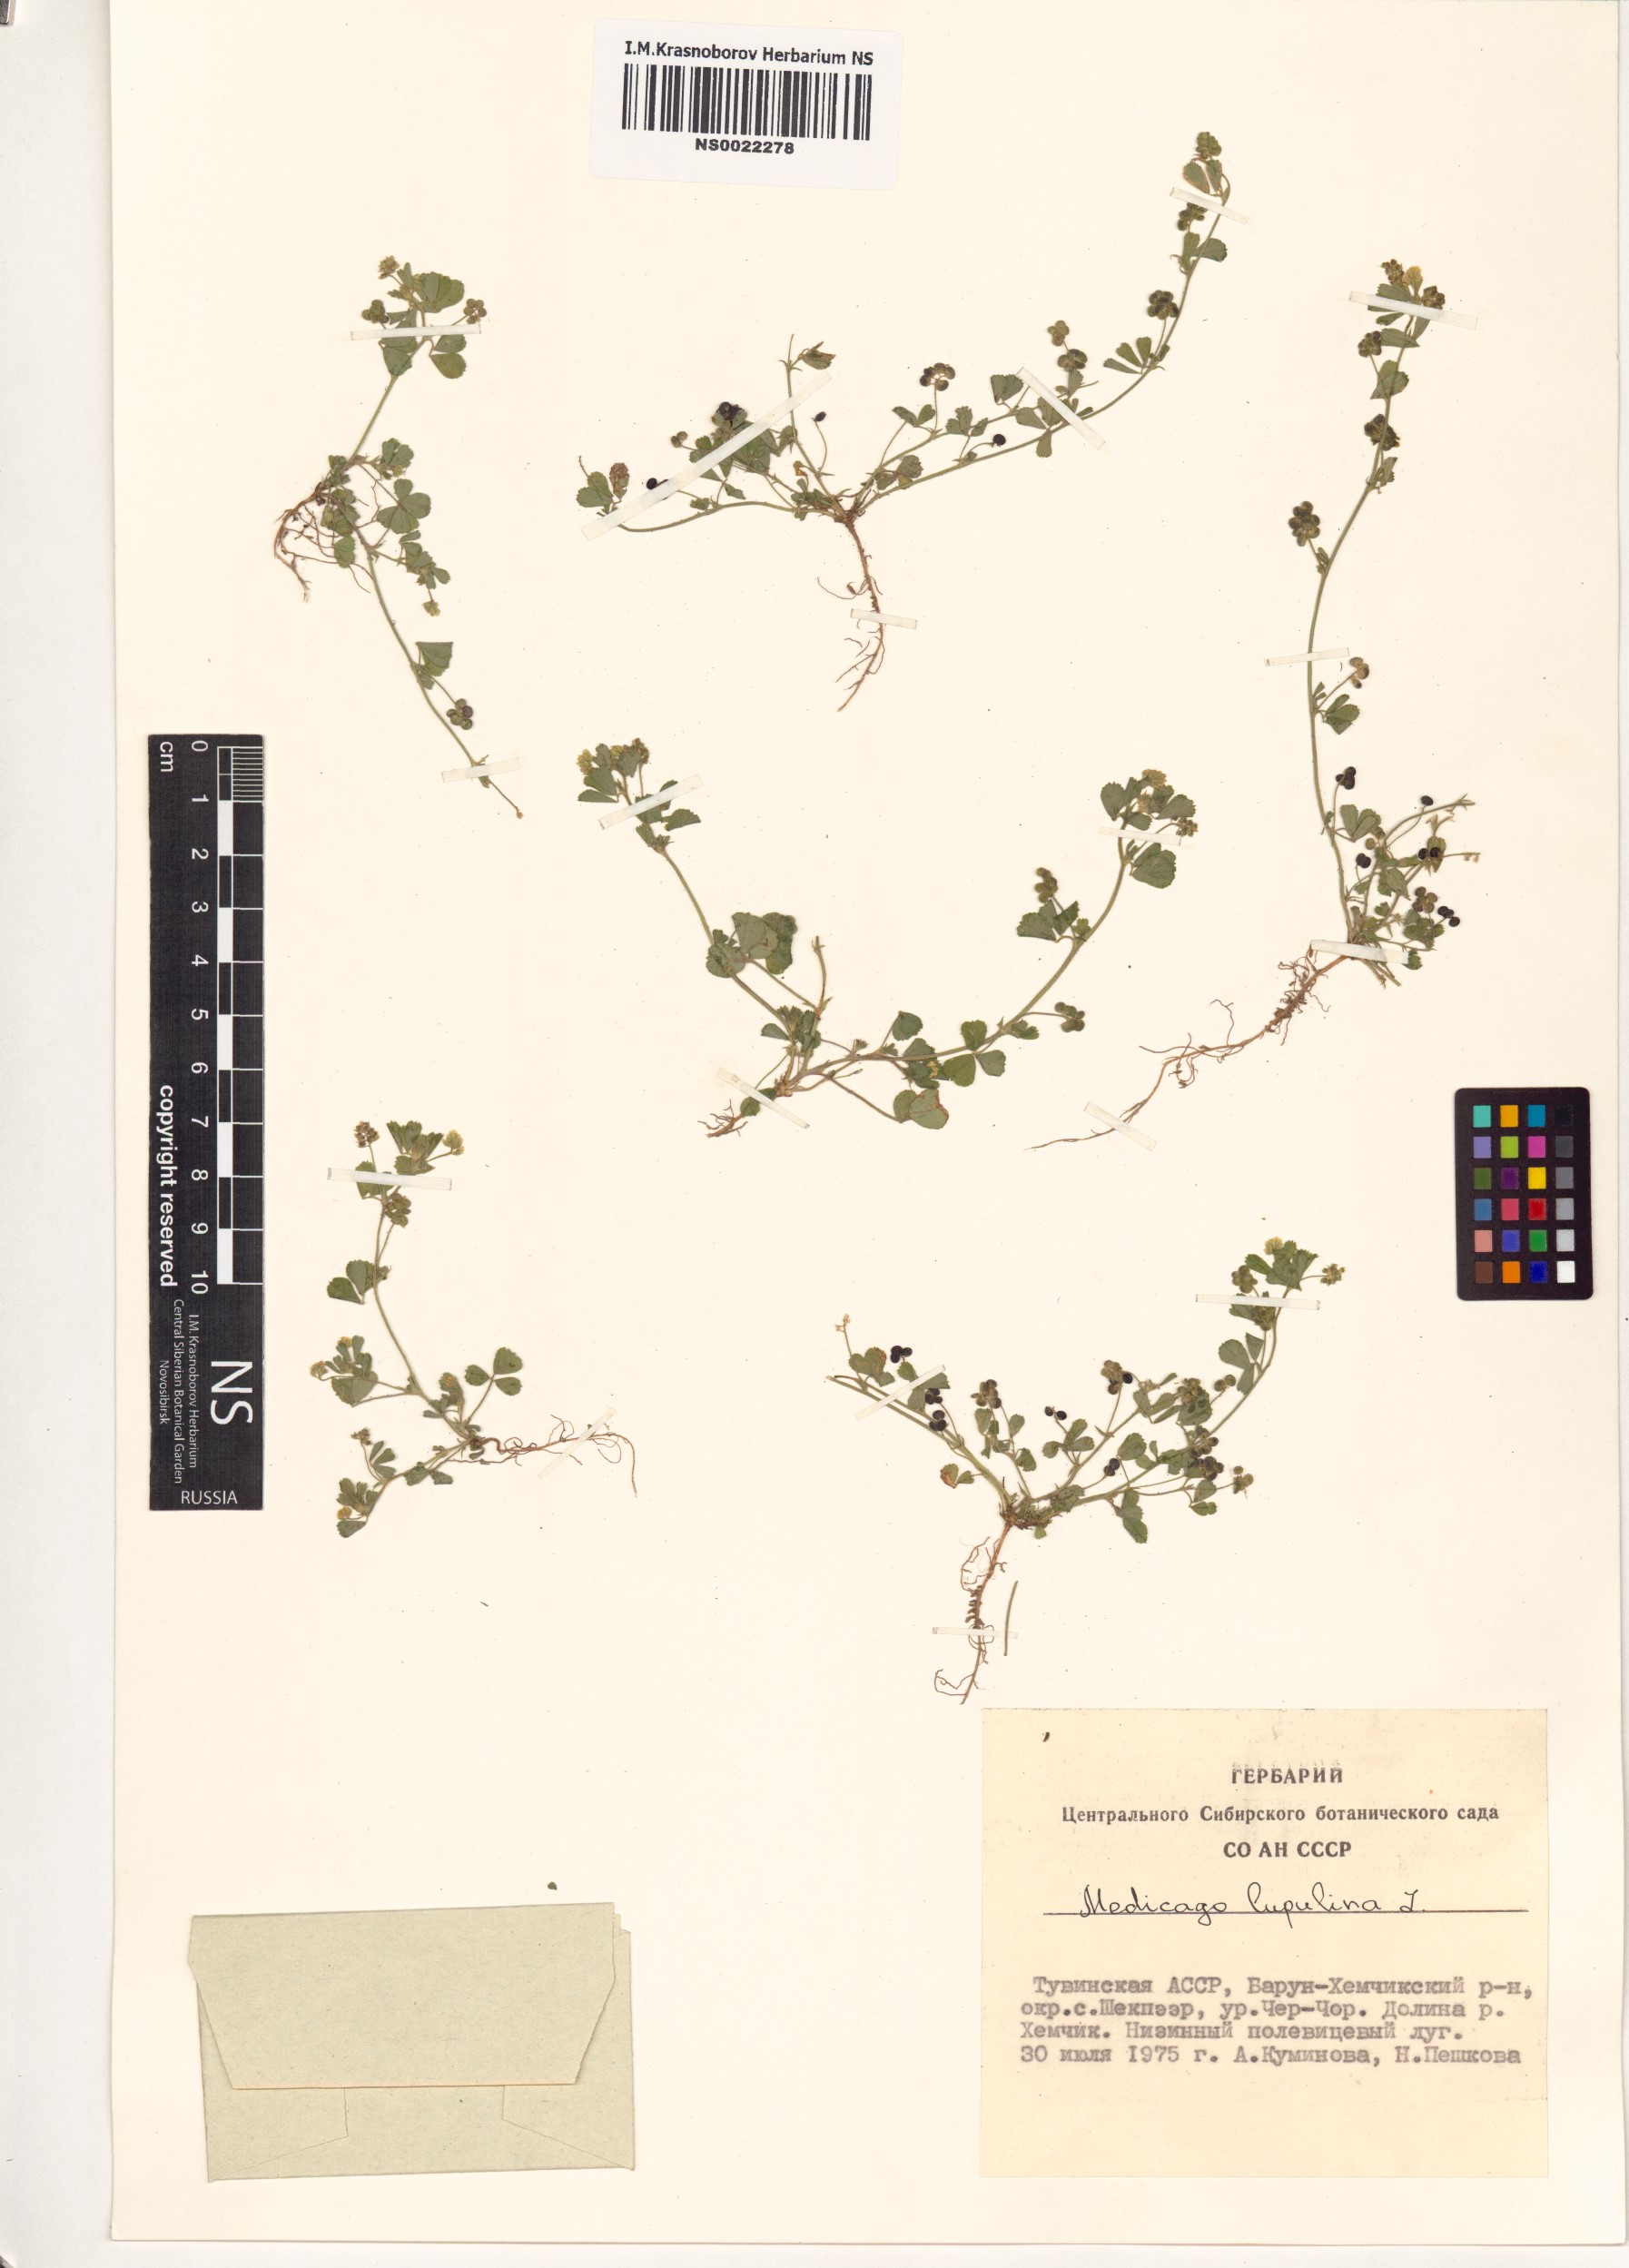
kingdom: Plantae
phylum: Tracheophyta
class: Magnoliopsida
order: Fabales
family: Fabaceae
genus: Medicago
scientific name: Medicago lupulina
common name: Black medick
